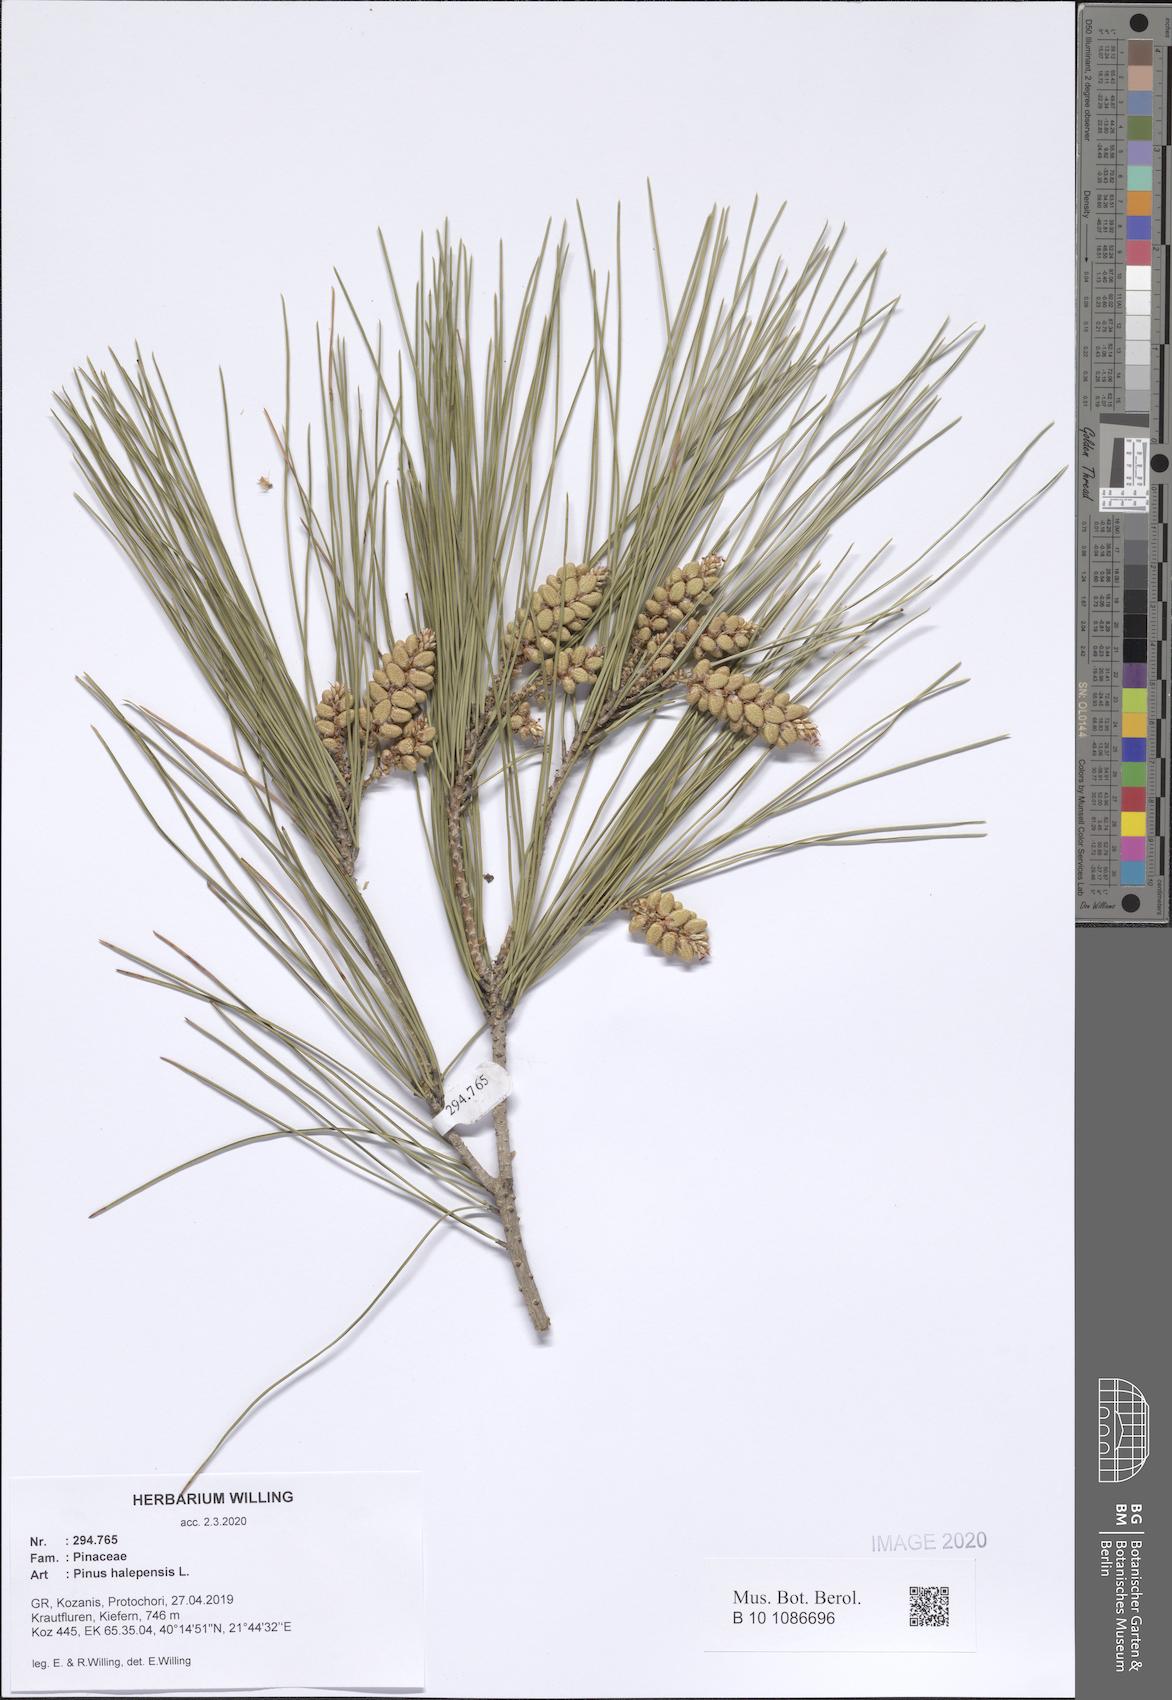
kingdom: Plantae
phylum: Tracheophyta
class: Pinopsida
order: Pinales
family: Pinaceae
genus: Pinus
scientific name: Pinus halepensis
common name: Aleppo pine
